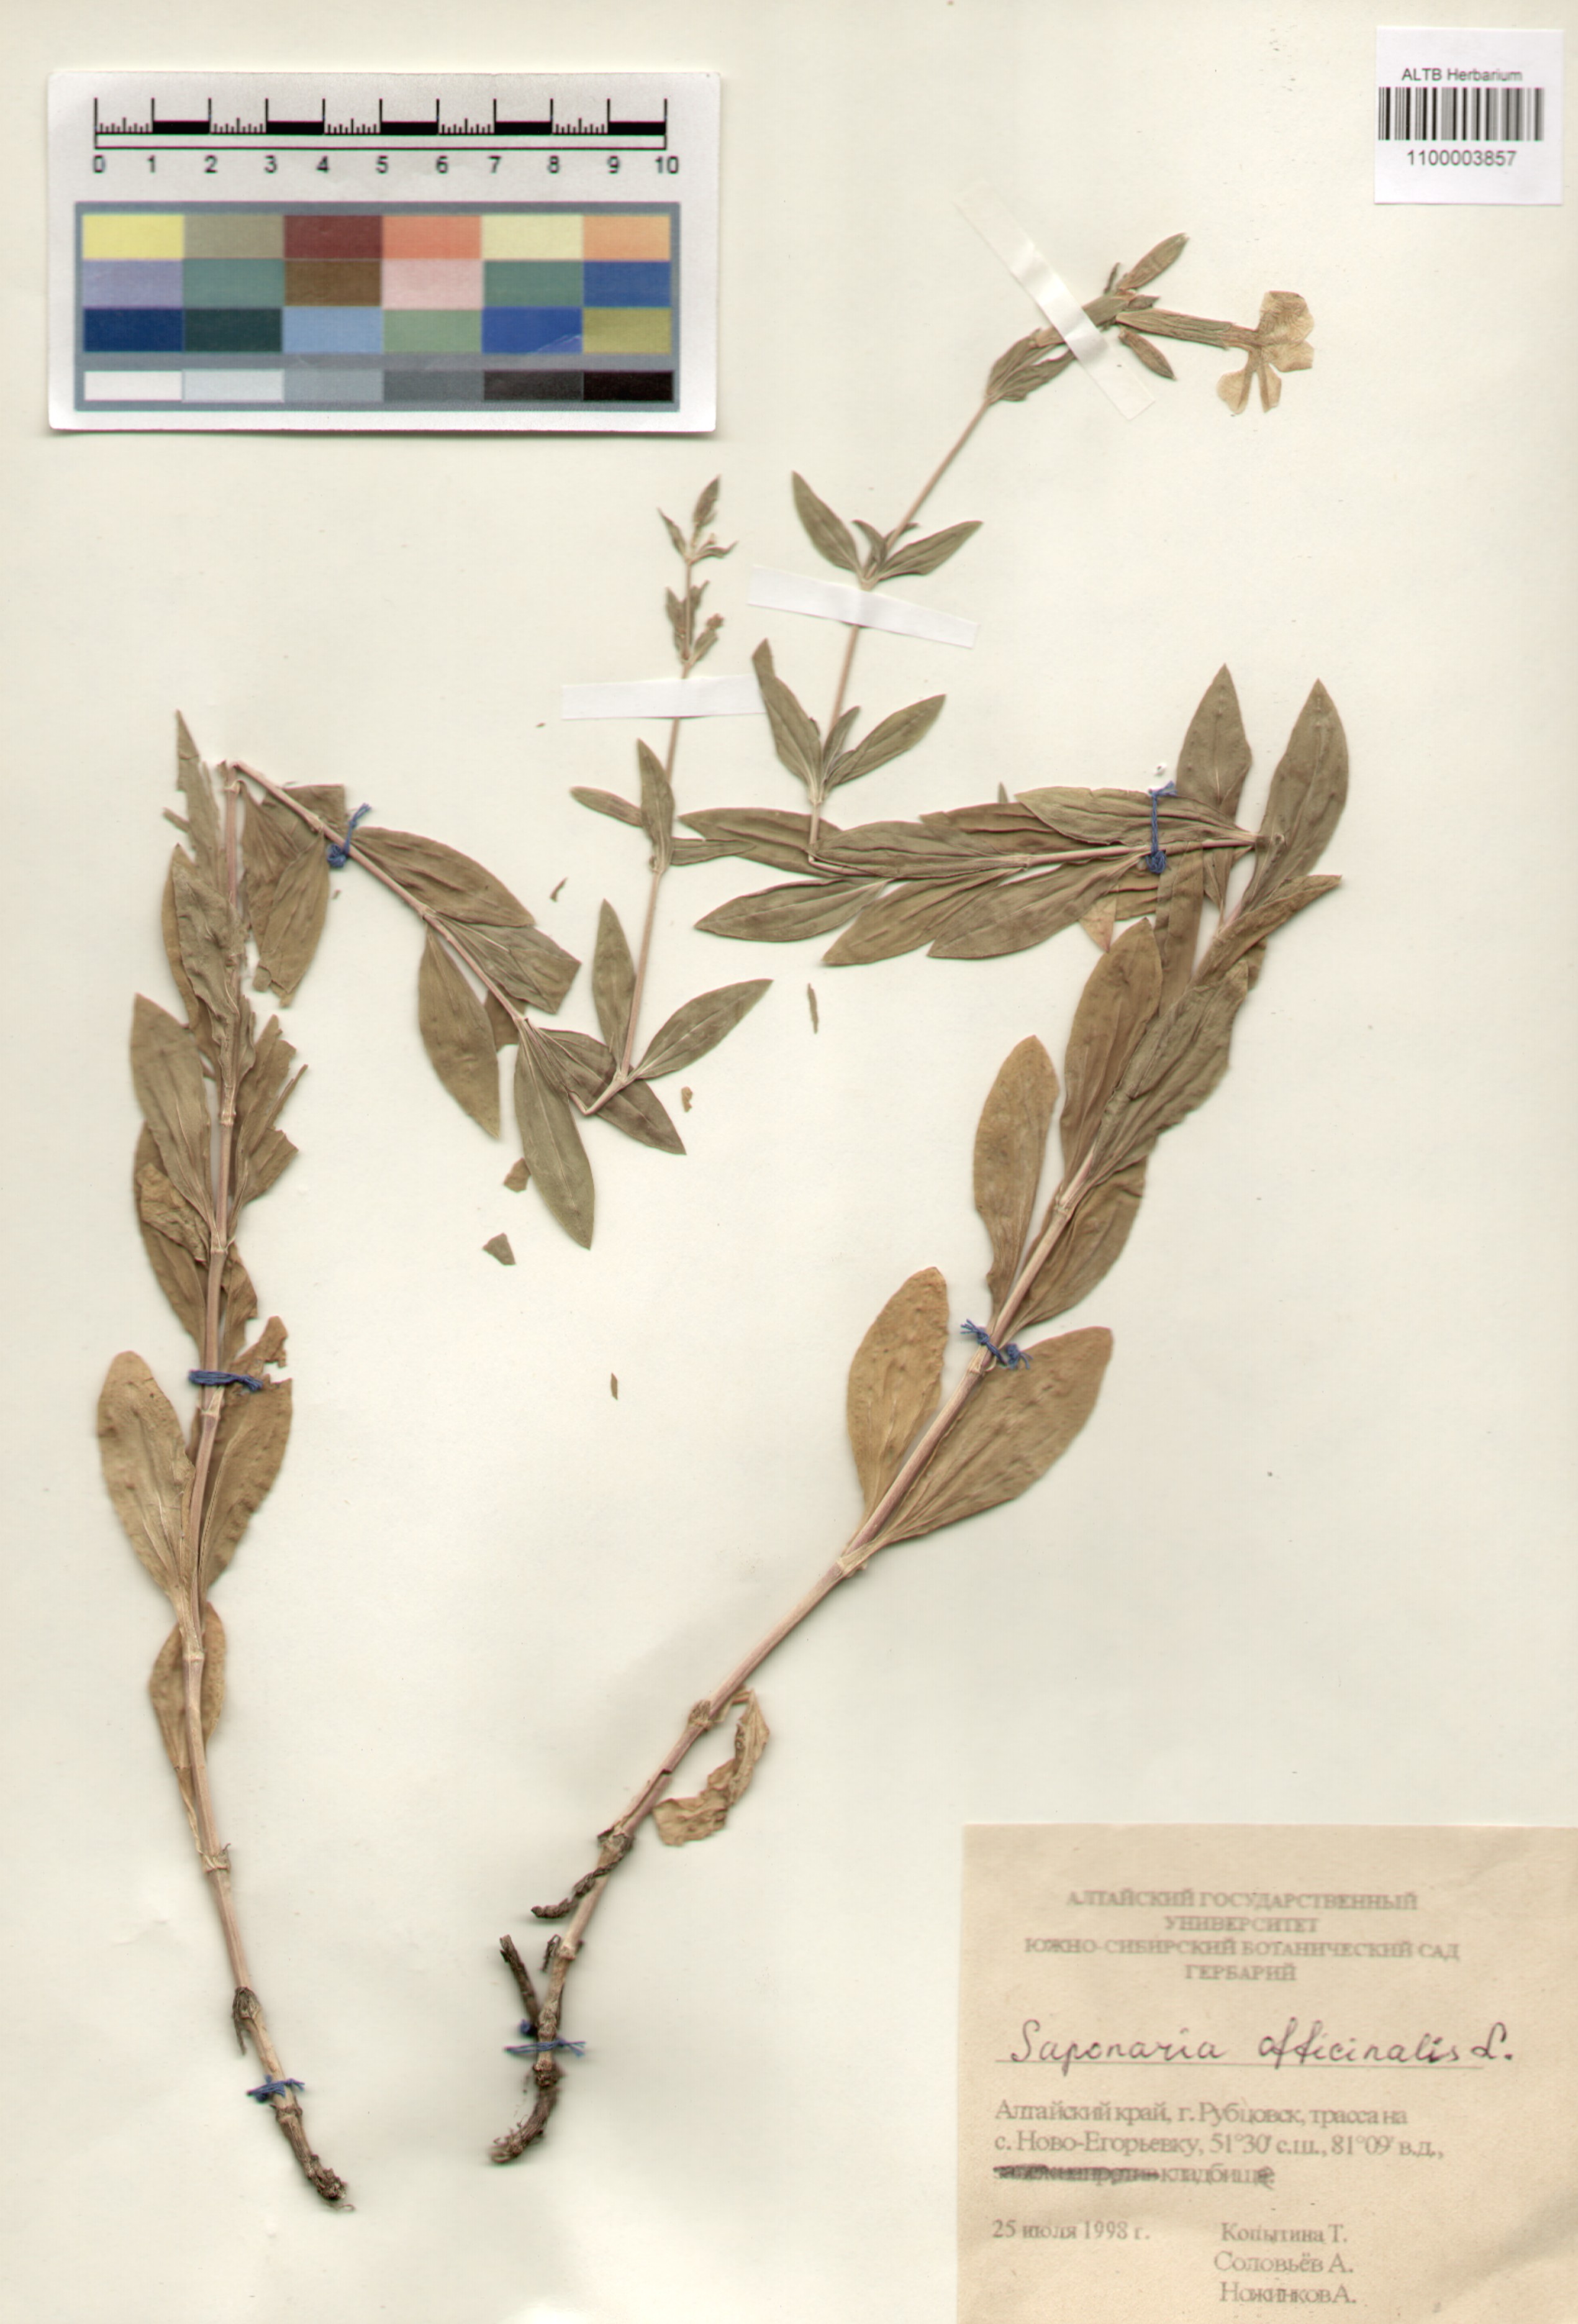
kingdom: Plantae
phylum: Tracheophyta
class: Magnoliopsida
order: Caryophyllales
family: Caryophyllaceae
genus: Saponaria
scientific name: Saponaria officinalis
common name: Soapwort
